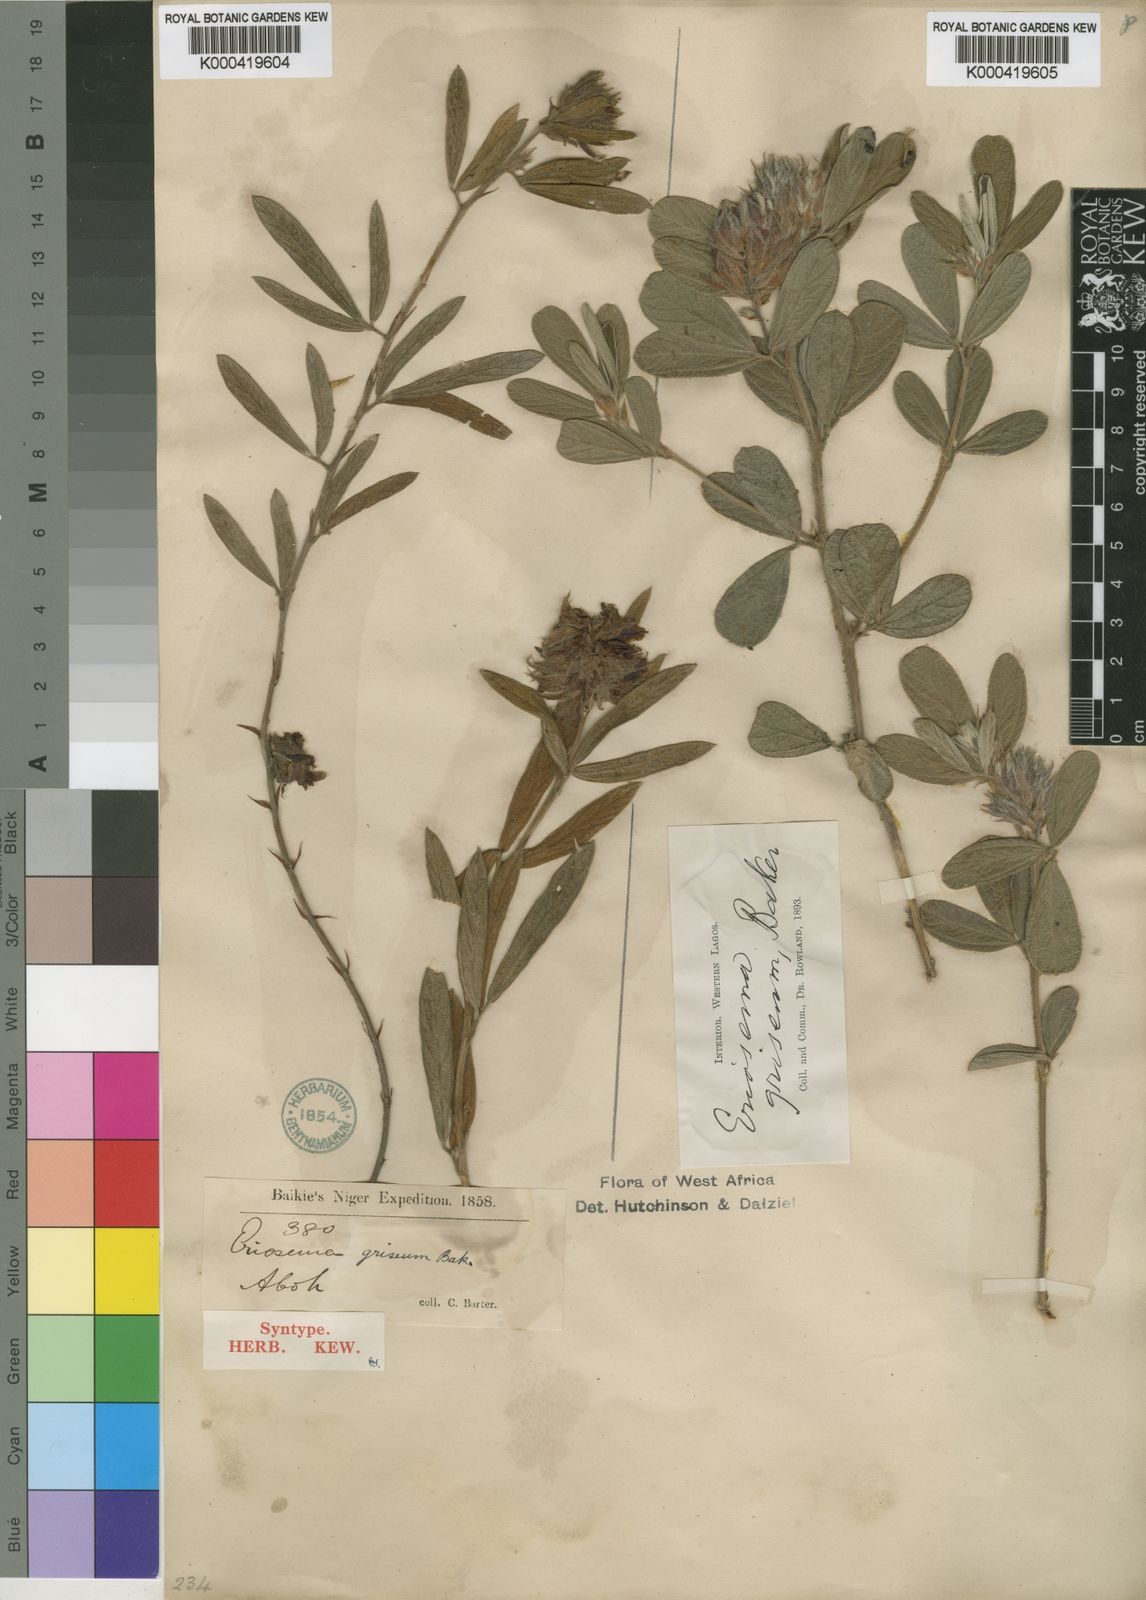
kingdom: Plantae
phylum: Tracheophyta
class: Magnoliopsida
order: Fabales
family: Fabaceae
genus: Eriosema
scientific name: Eriosema griseum
